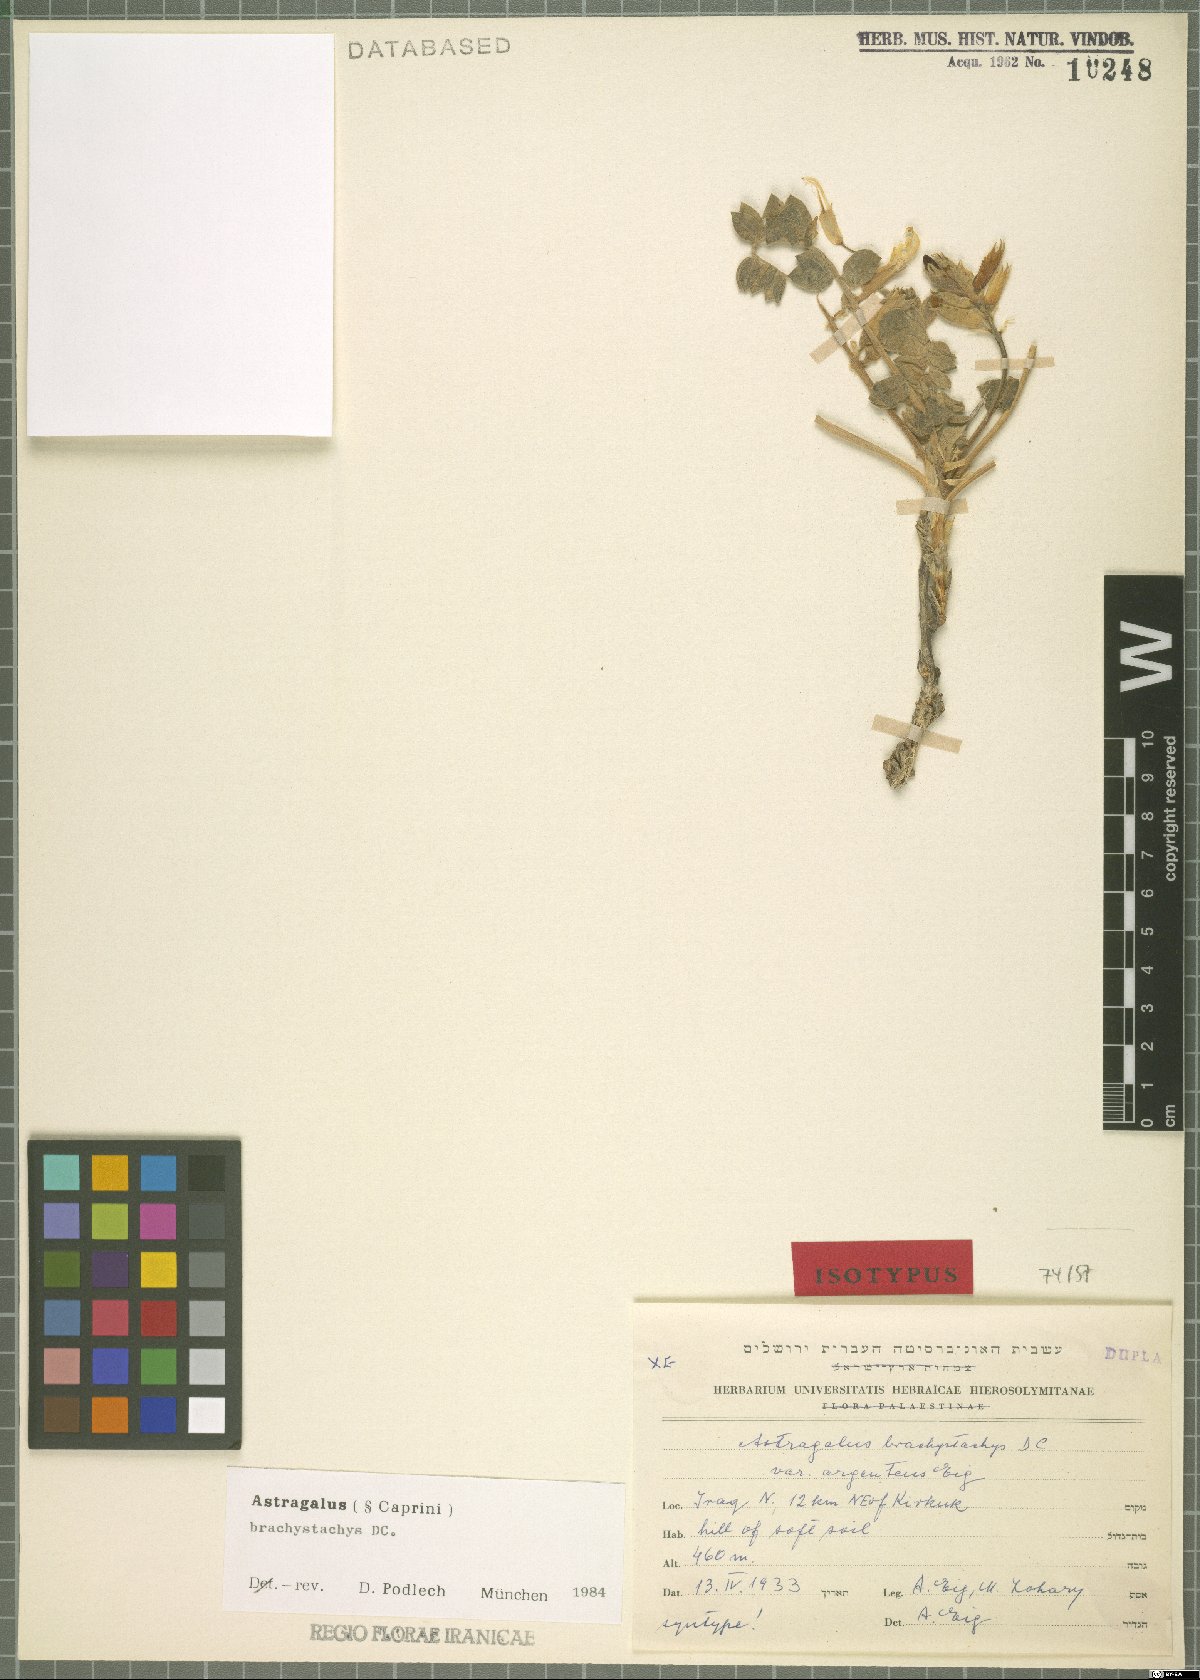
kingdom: Plantae
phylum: Tracheophyta
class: Magnoliopsida
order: Fabales
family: Fabaceae
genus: Astragalus
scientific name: Astragalus brachystachys
